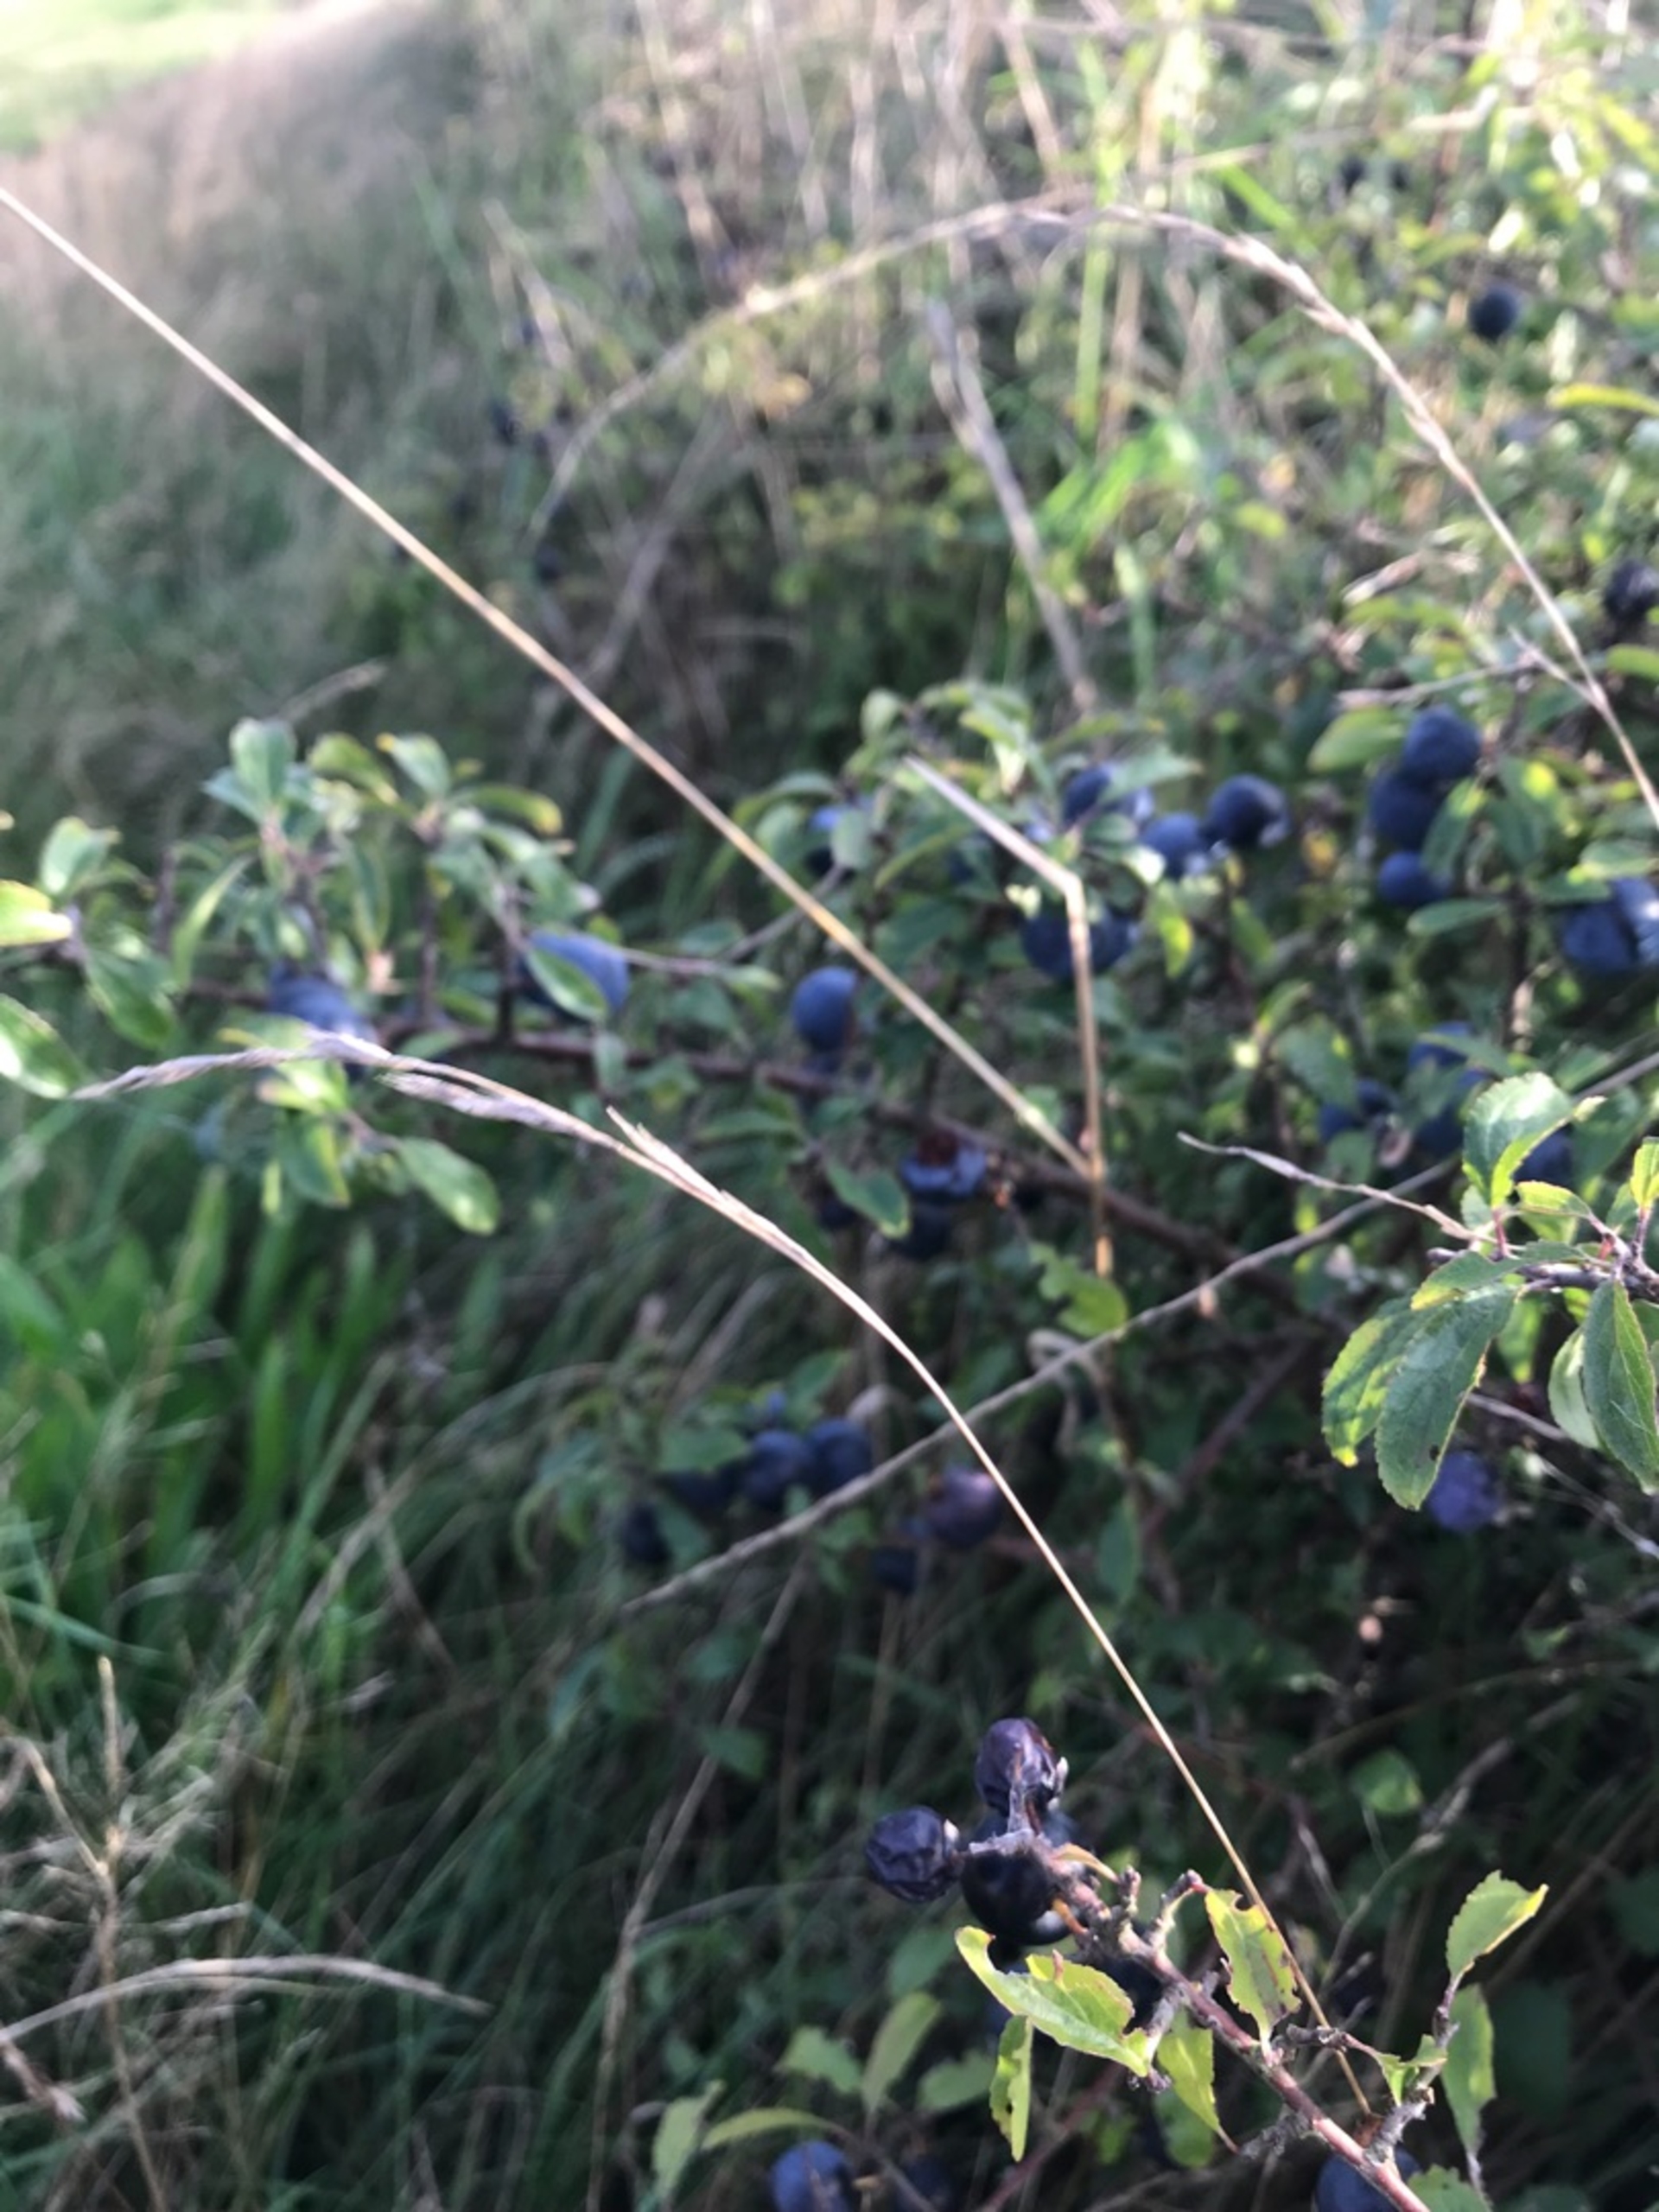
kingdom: Plantae
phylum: Tracheophyta
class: Magnoliopsida
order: Rosales
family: Rosaceae
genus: Prunus
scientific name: Prunus spinosa
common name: Slåen
